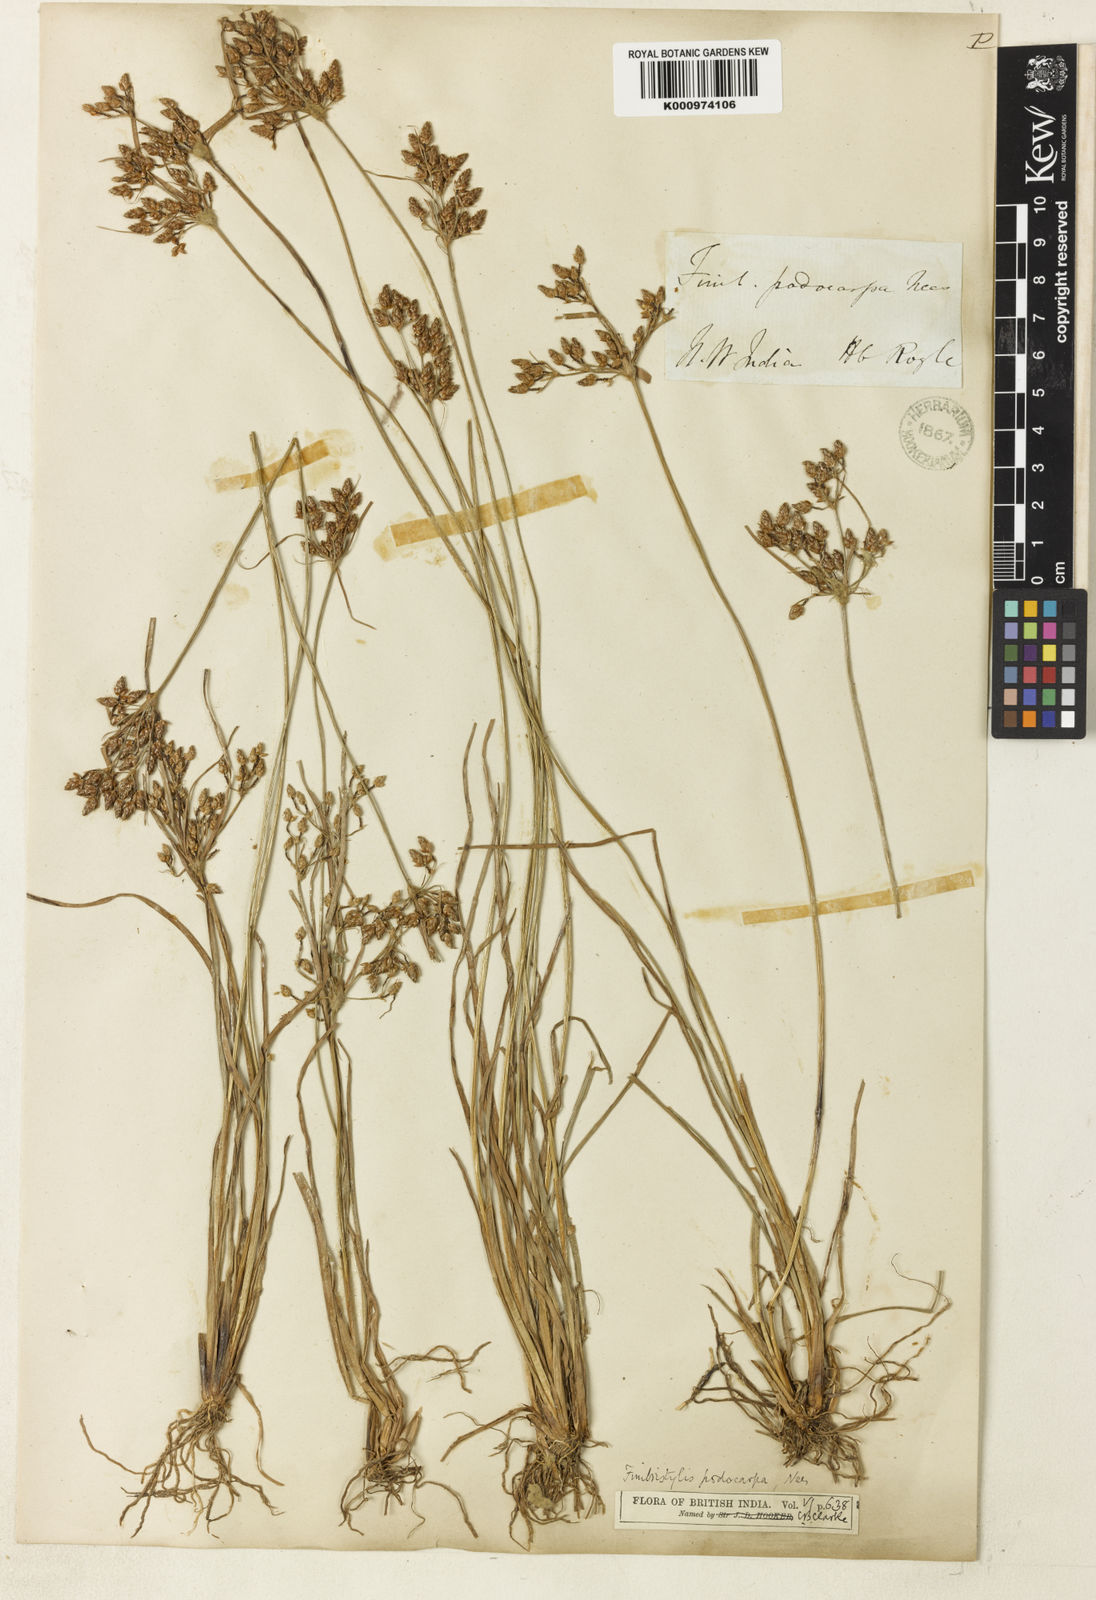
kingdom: Plantae
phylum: Tracheophyta
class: Liliopsida
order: Poales
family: Cyperaceae
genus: Fimbristylis
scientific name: Fimbristylis dichotoma
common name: Forked fimbry
